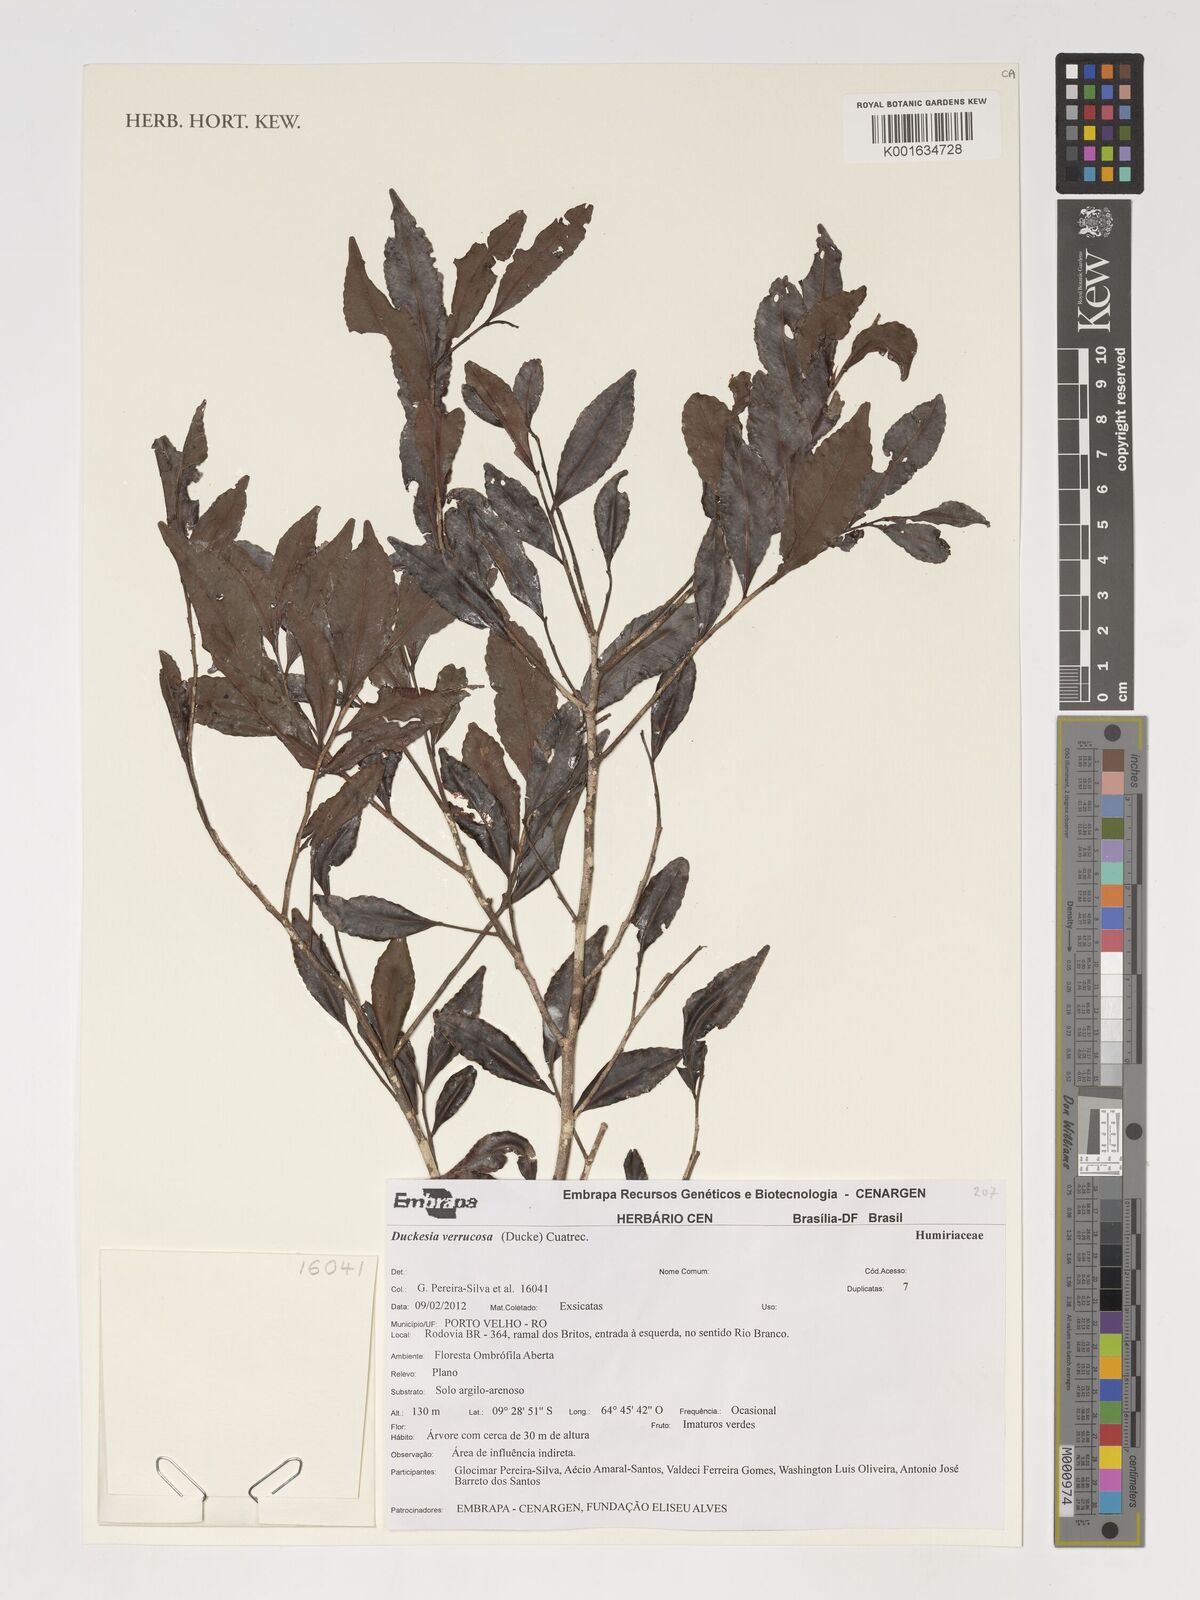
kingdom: Plantae
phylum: Tracheophyta
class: Magnoliopsida
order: Malpighiales
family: Humiriaceae
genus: Duckesia
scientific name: Duckesia verrucosa
